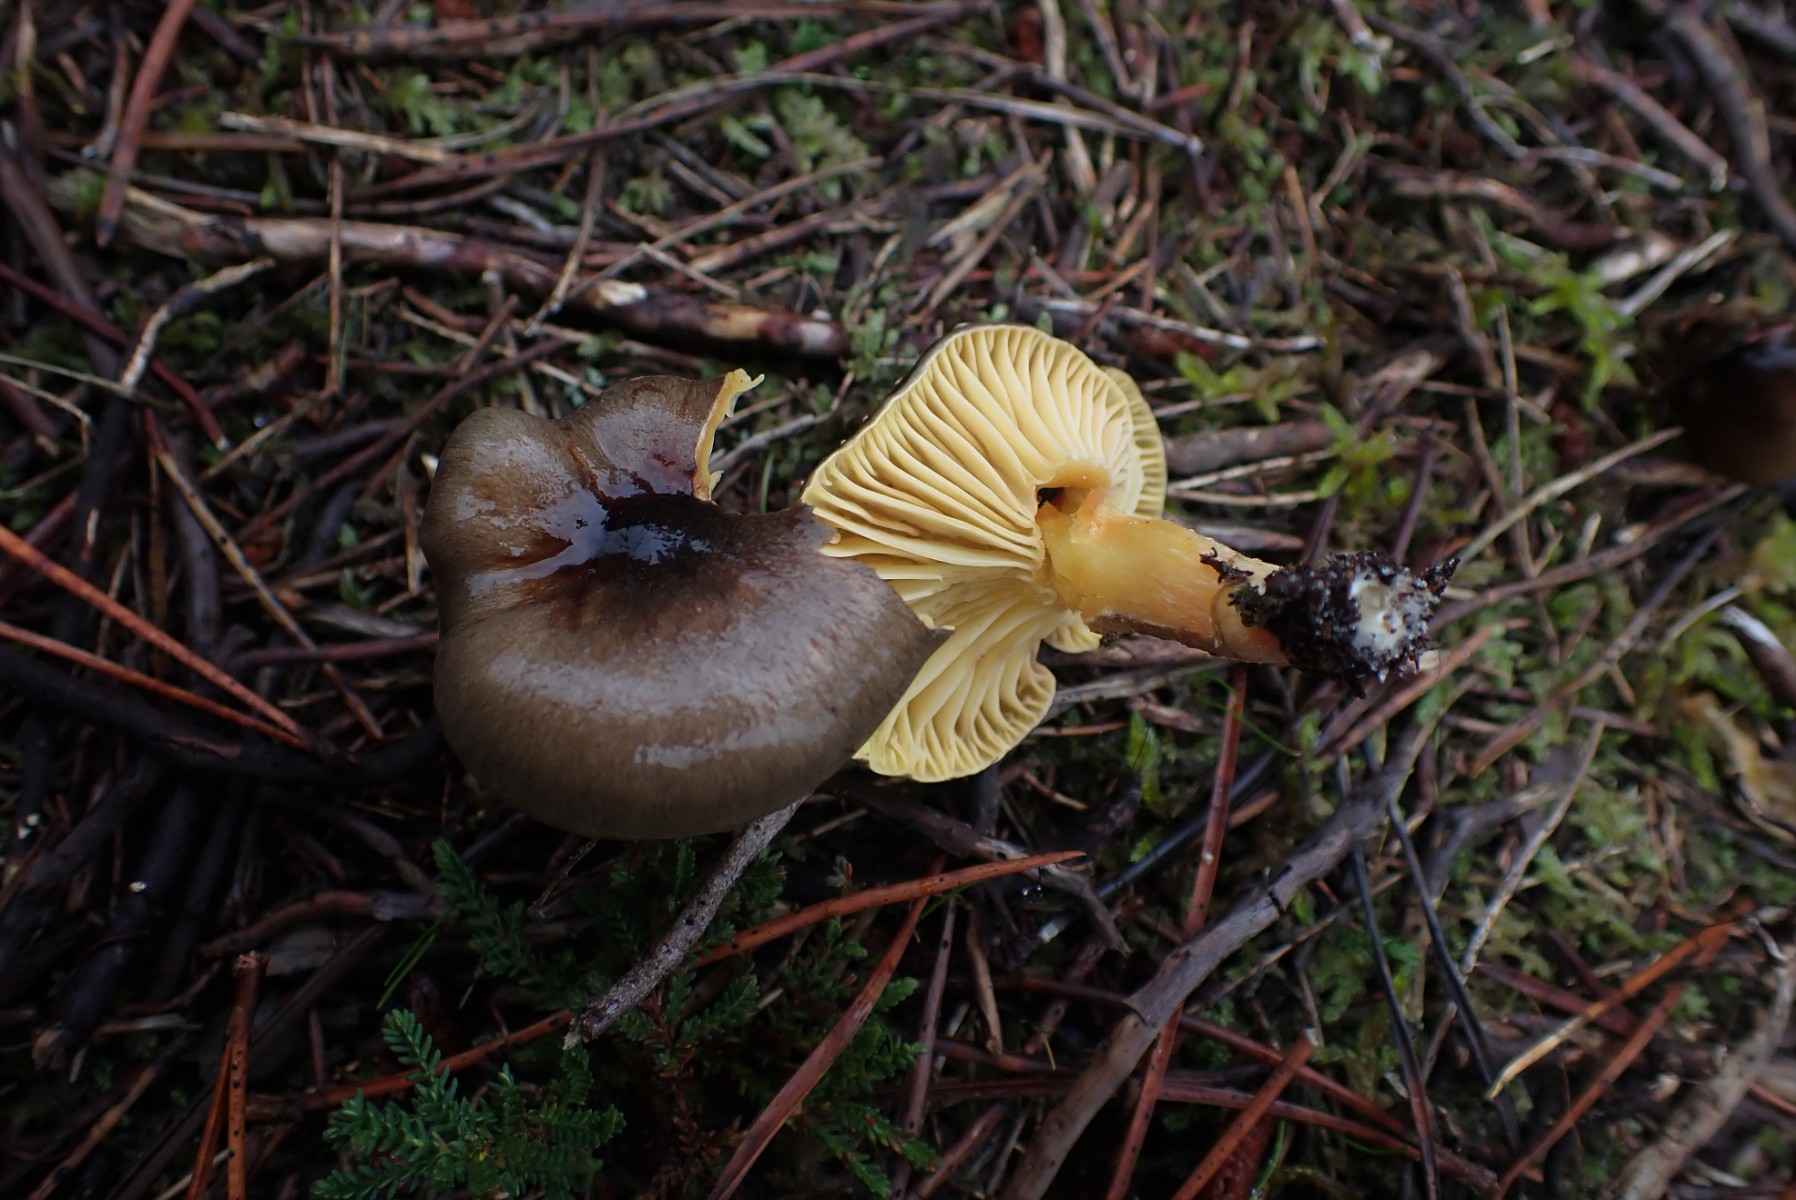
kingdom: Fungi
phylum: Basidiomycota
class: Agaricomycetes
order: Agaricales
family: Hygrophoraceae
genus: Hygrophorus
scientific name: Hygrophorus hypothejus
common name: frost-sneglehat
